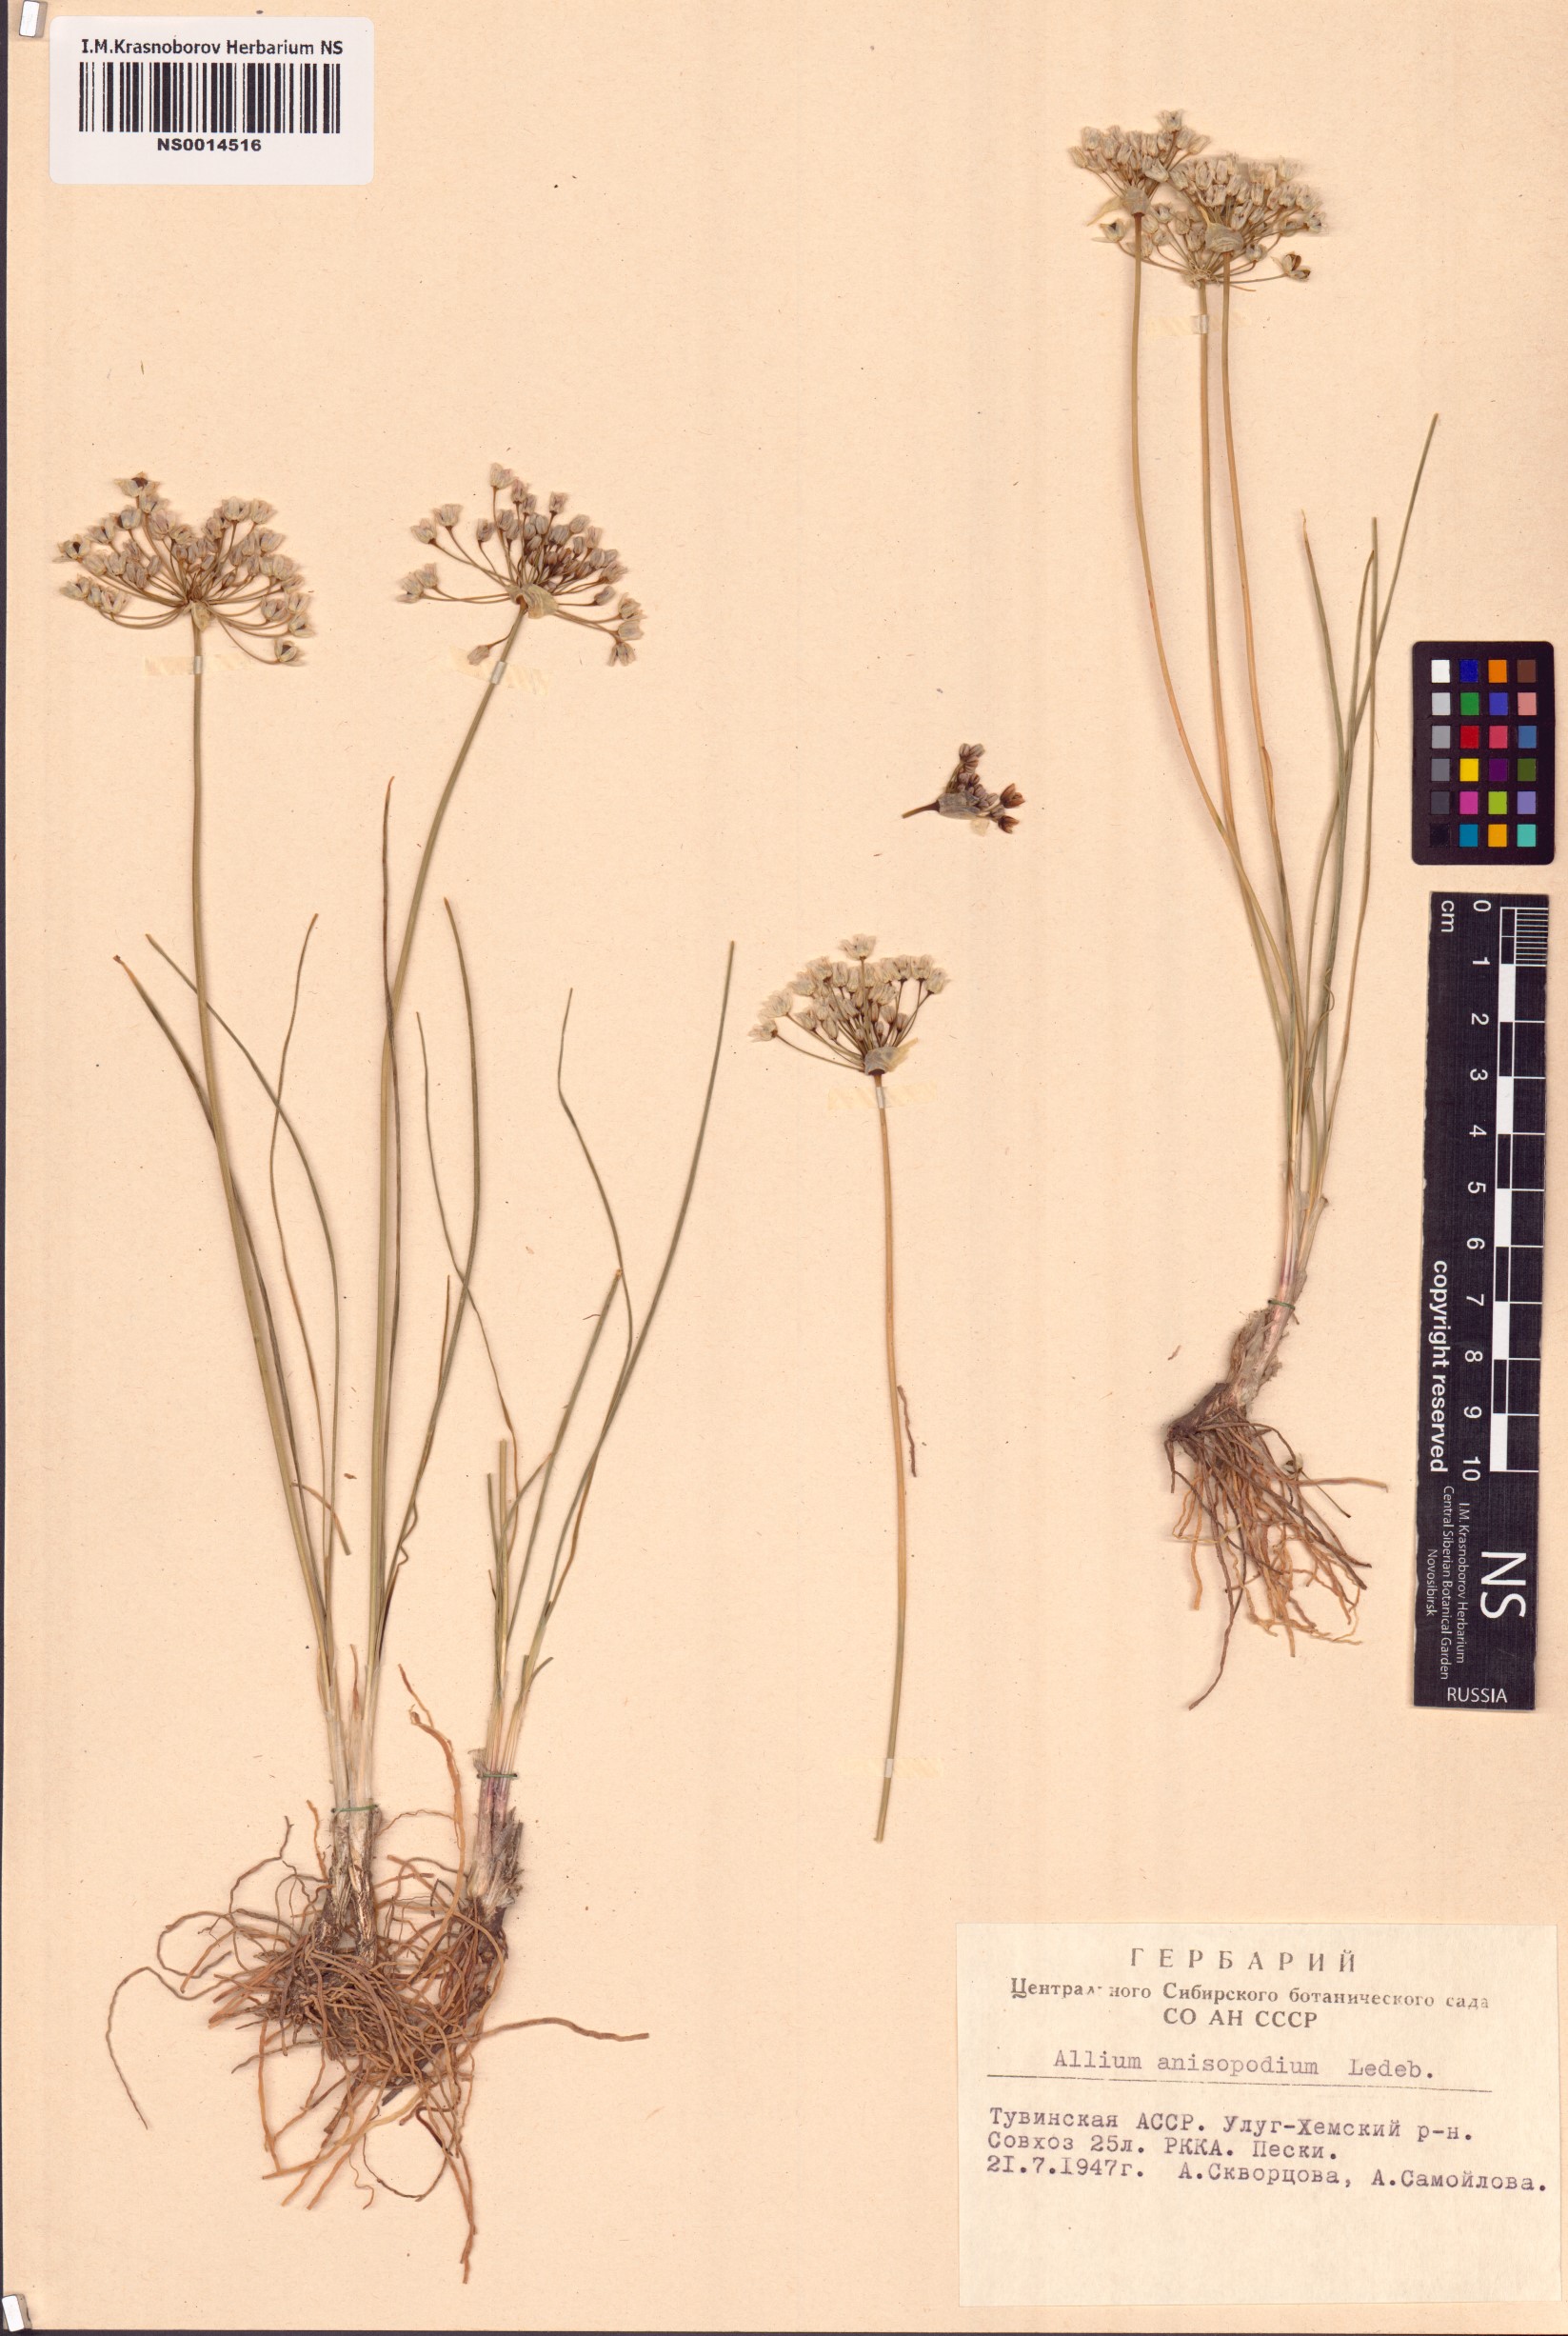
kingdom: Plantae
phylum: Tracheophyta
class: Liliopsida
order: Asparagales
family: Amaryllidaceae
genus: Allium
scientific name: Allium anisopodium
